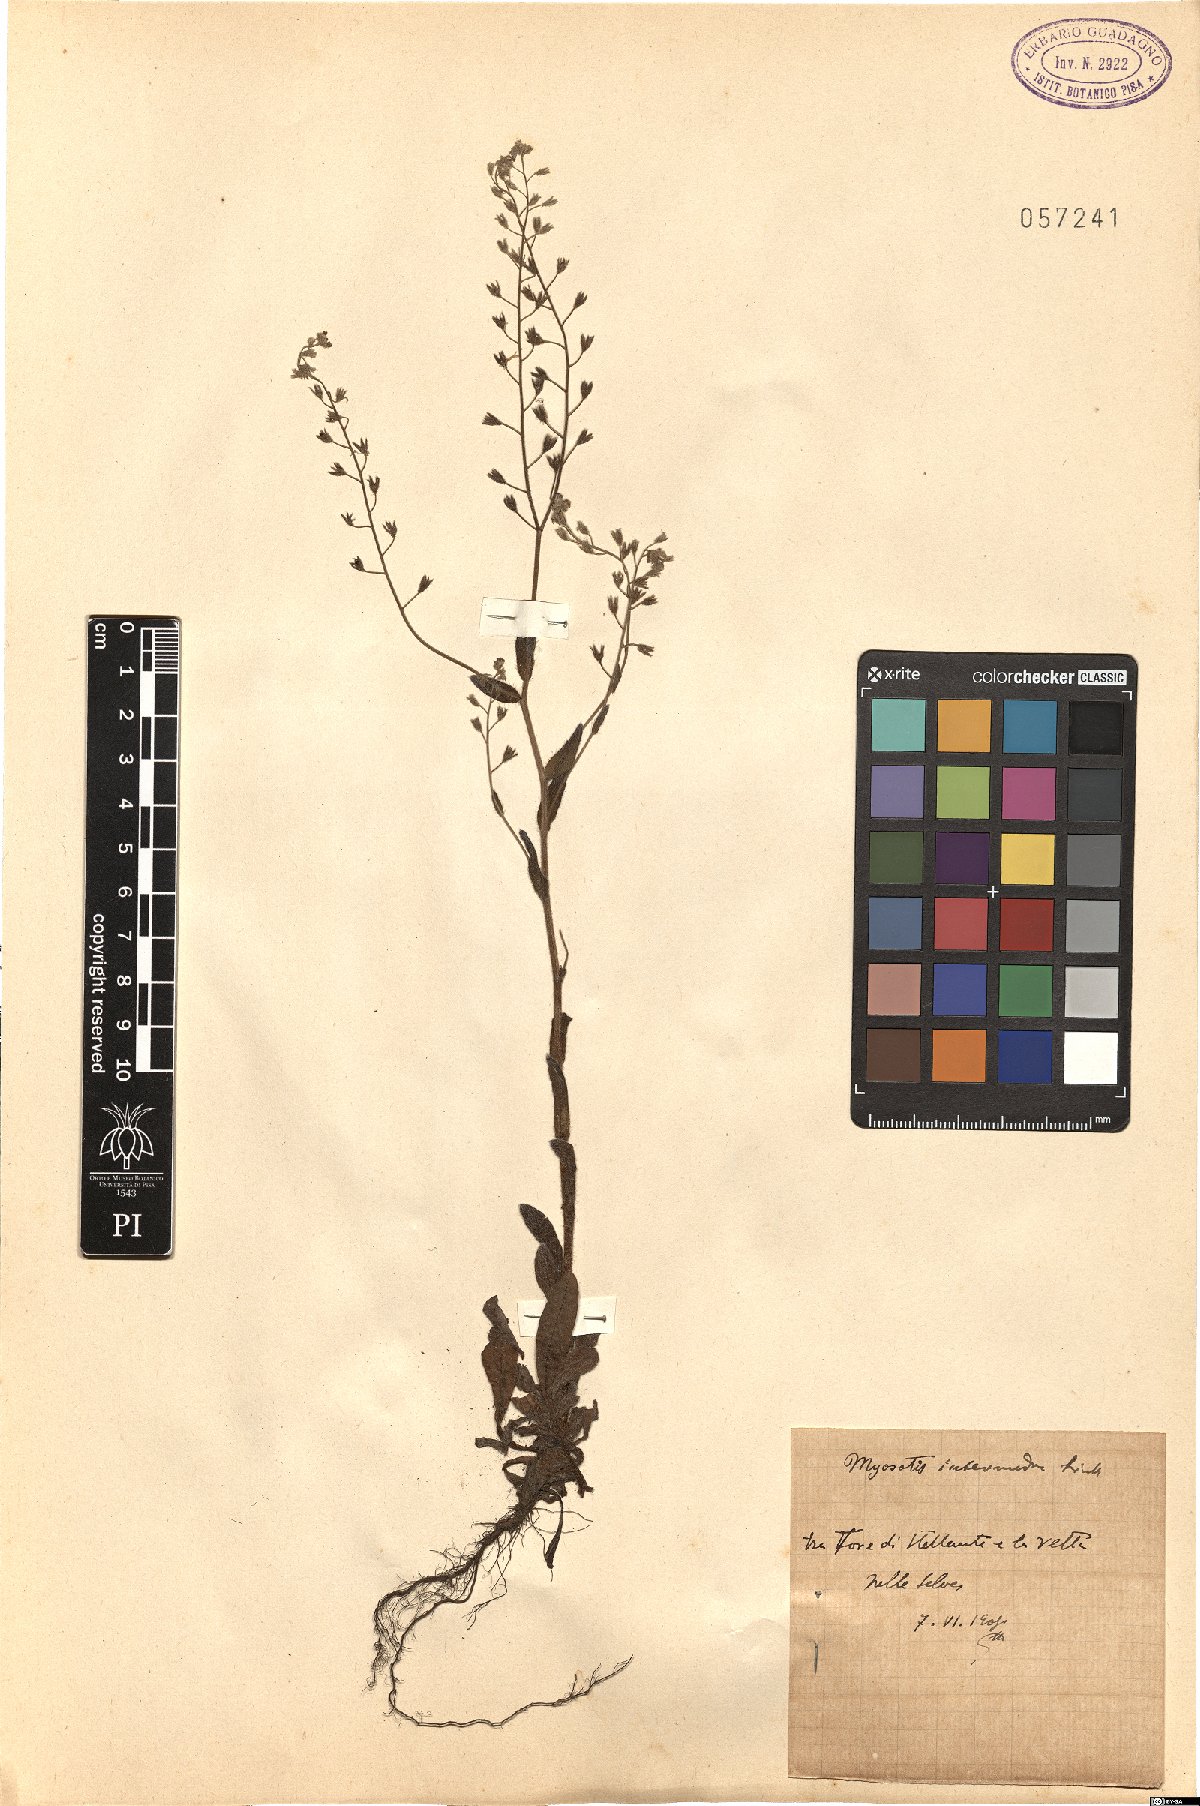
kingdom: Plantae
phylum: Tracheophyta
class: Magnoliopsida
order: Boraginales
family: Boraginaceae
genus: Myosotis
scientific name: Myosotis arvensis
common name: Field forget-me-not
